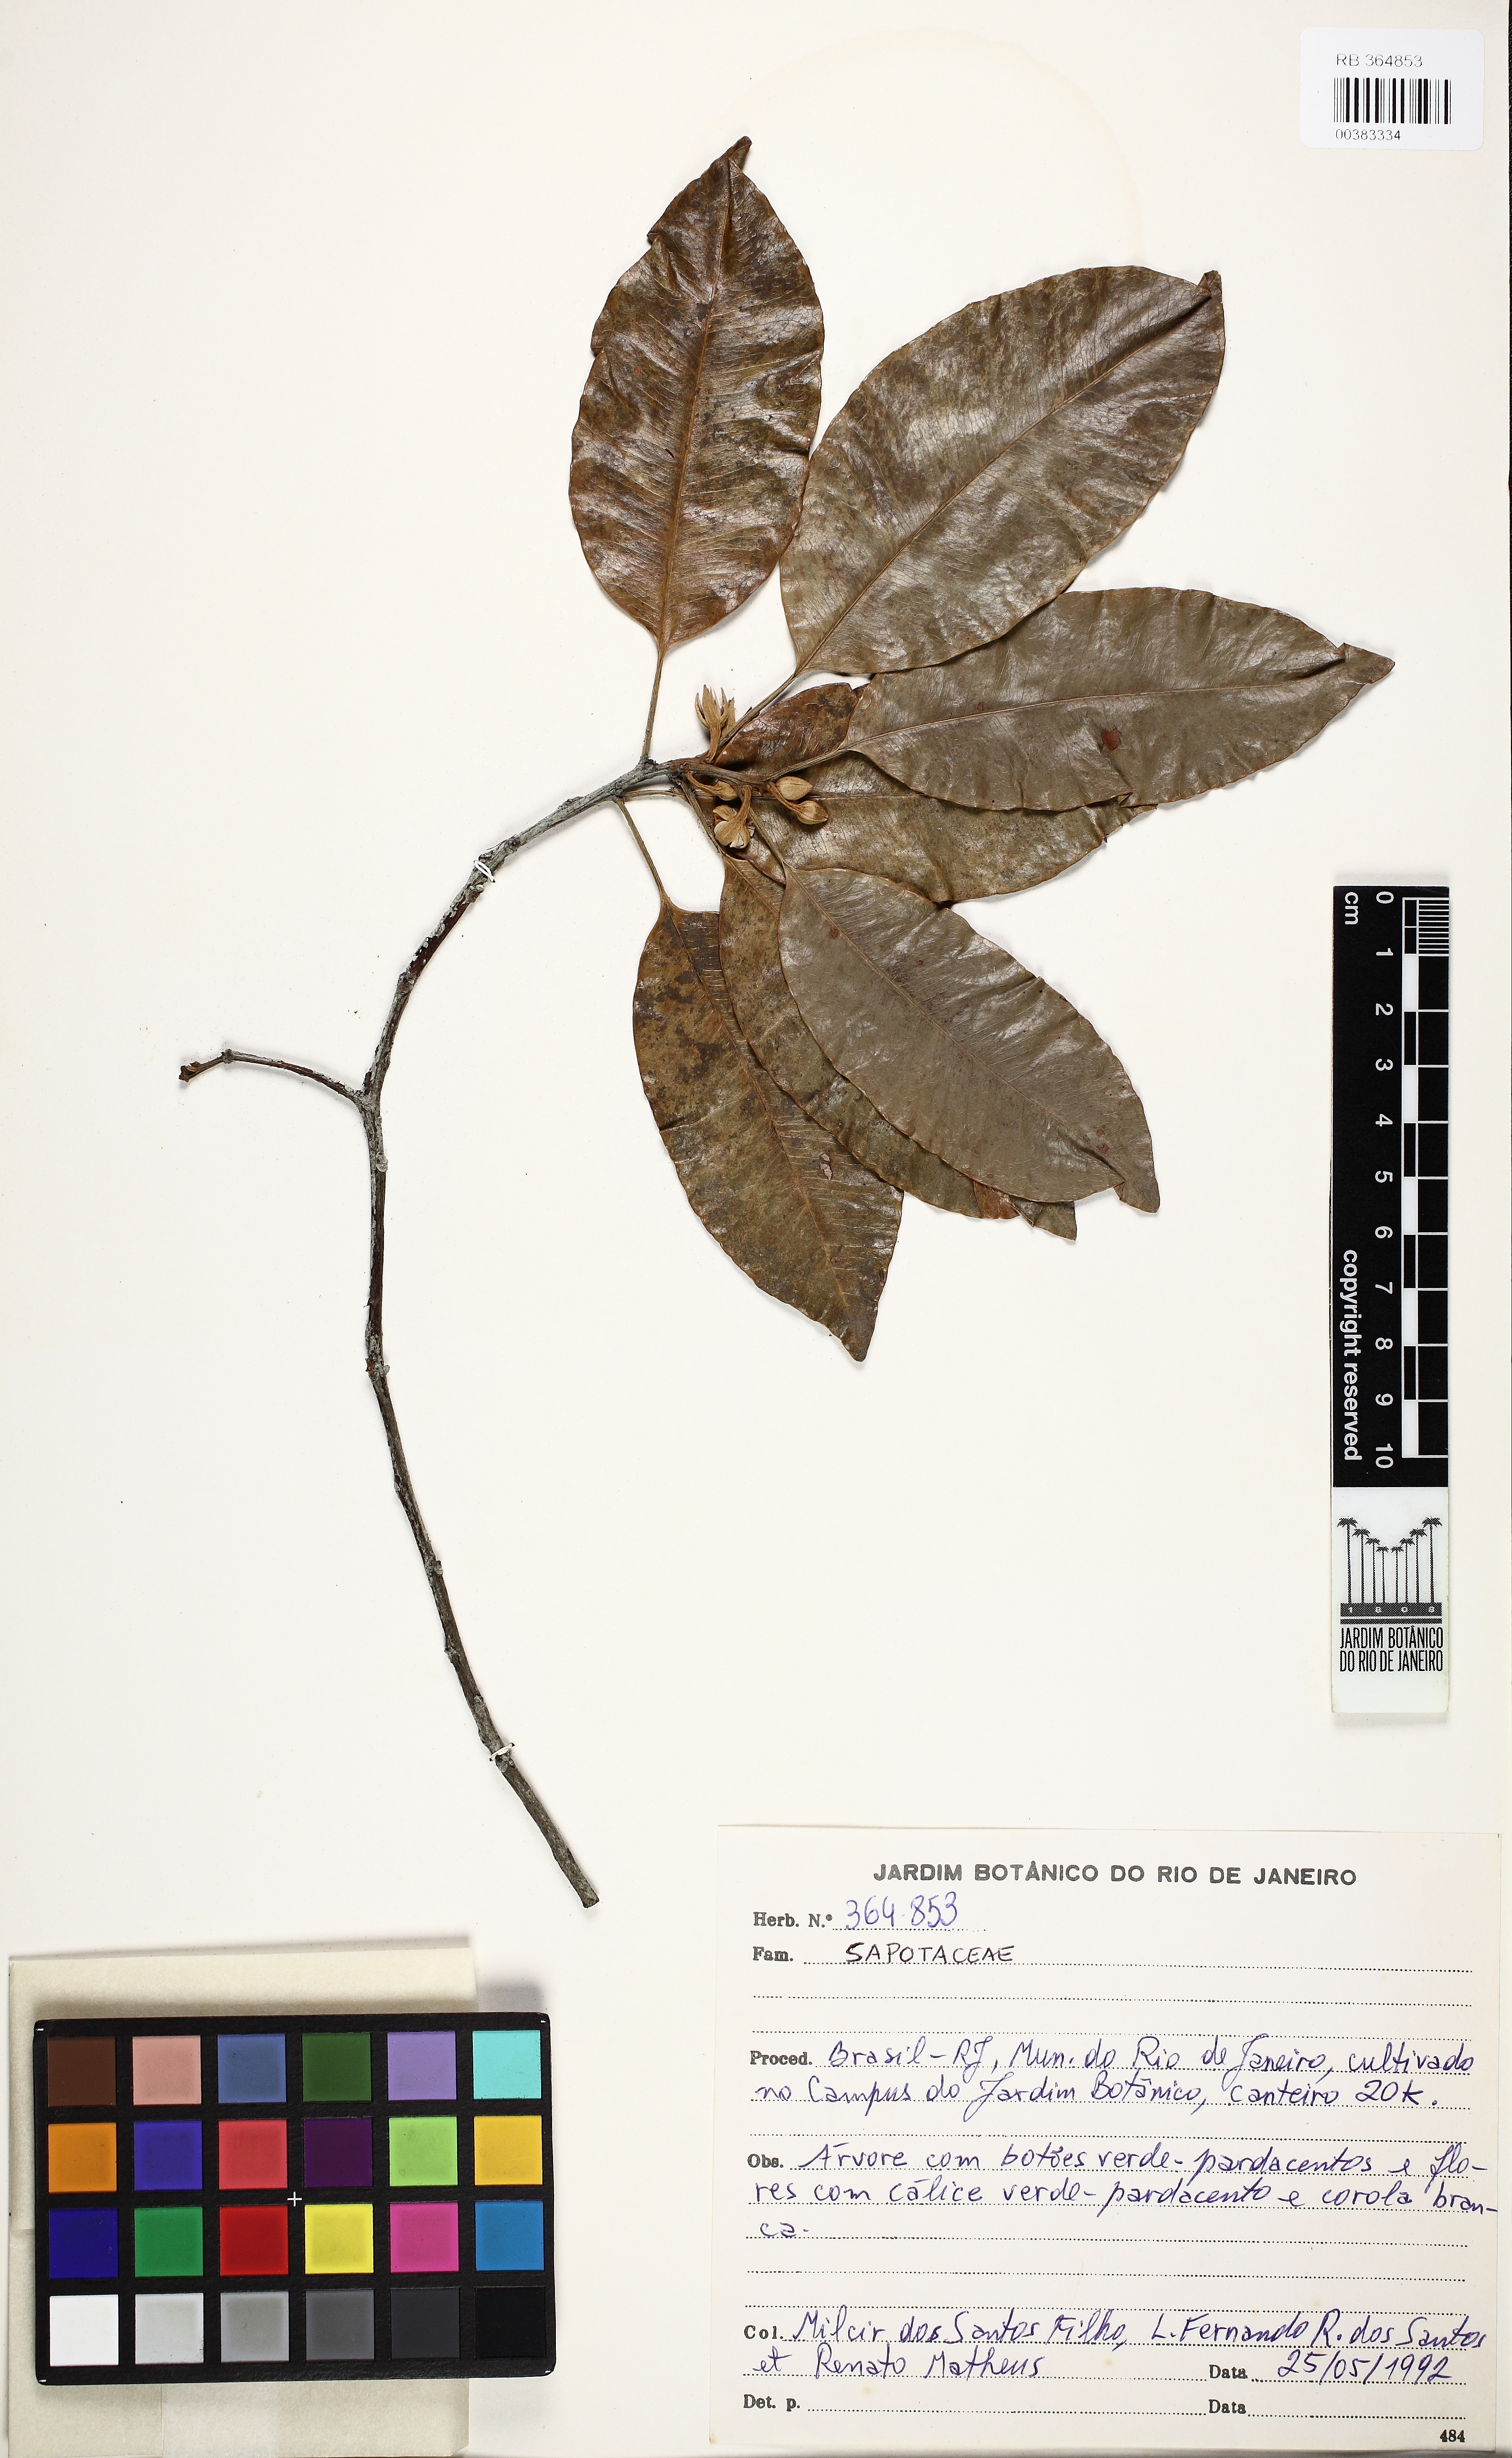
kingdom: Plantae
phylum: Tracheophyta
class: Magnoliopsida
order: Ericales
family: Sapotaceae
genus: Mimusops
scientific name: Mimusops elengi
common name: Spanish cherry
